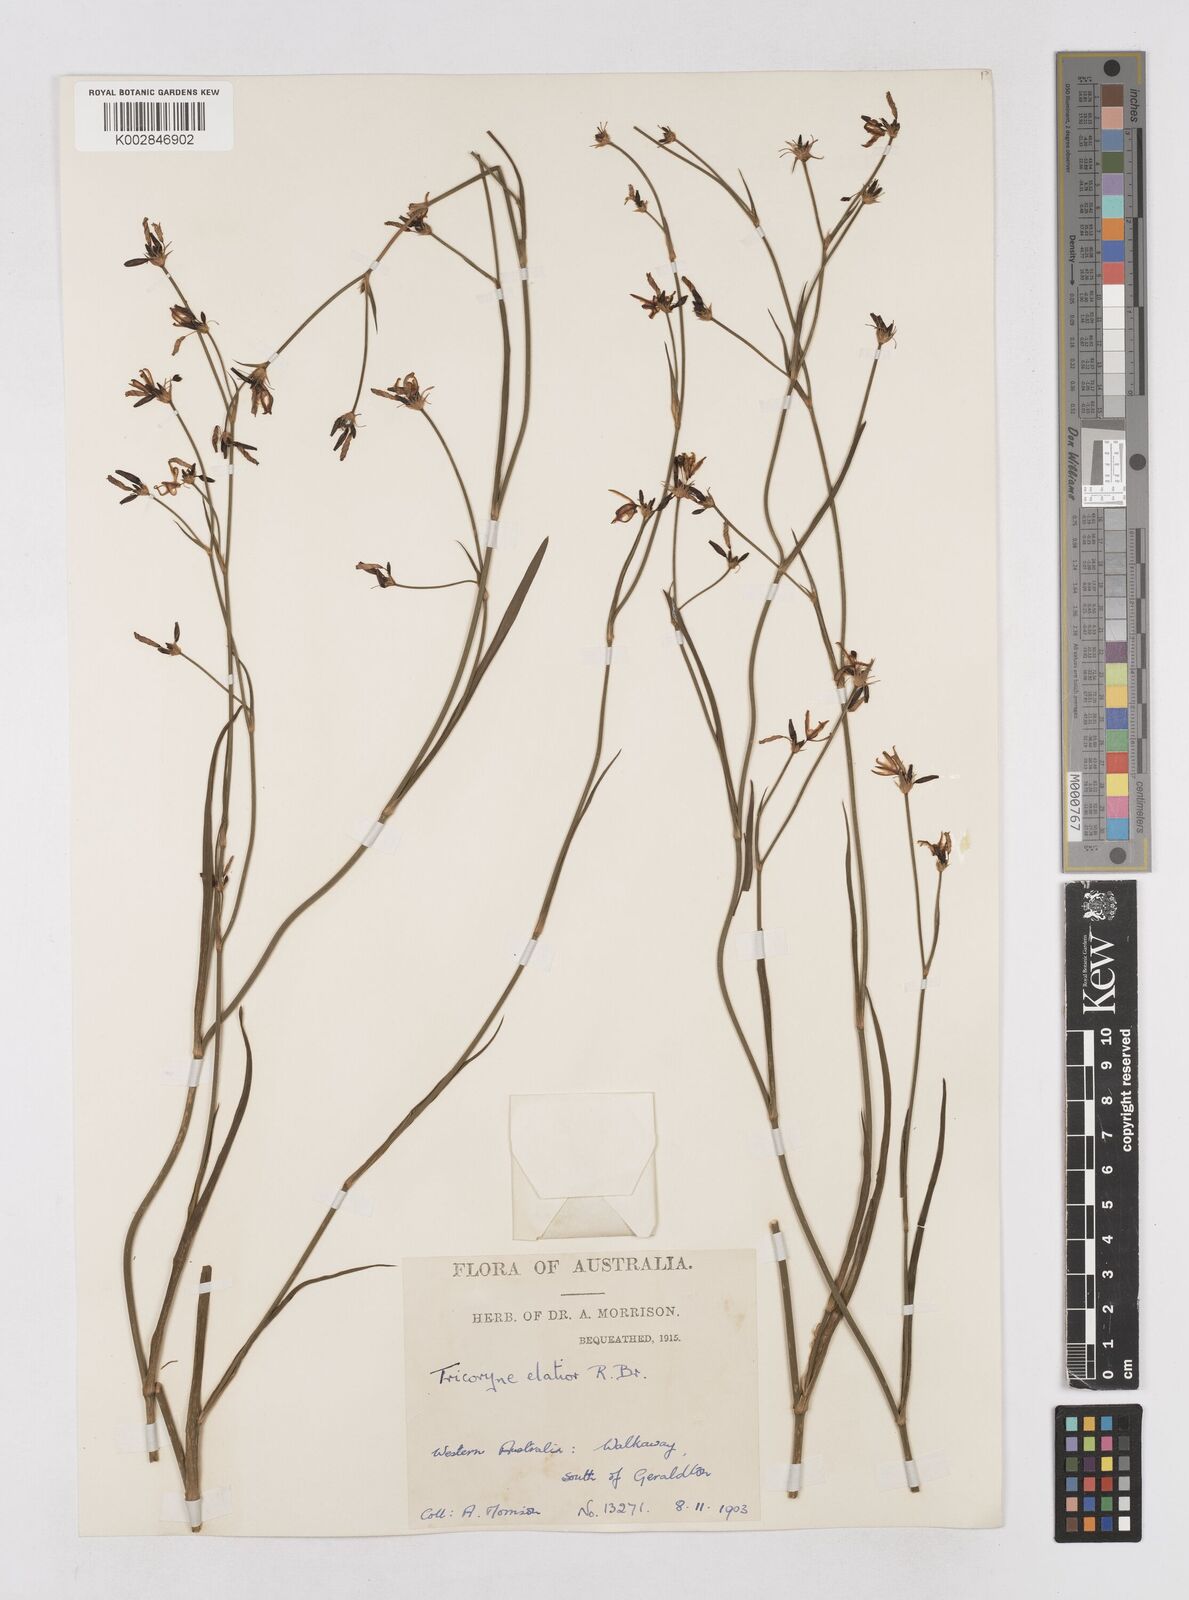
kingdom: Plantae
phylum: Tracheophyta
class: Liliopsida
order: Asparagales
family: Asphodelaceae
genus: Tricoryne
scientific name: Tricoryne elatior
